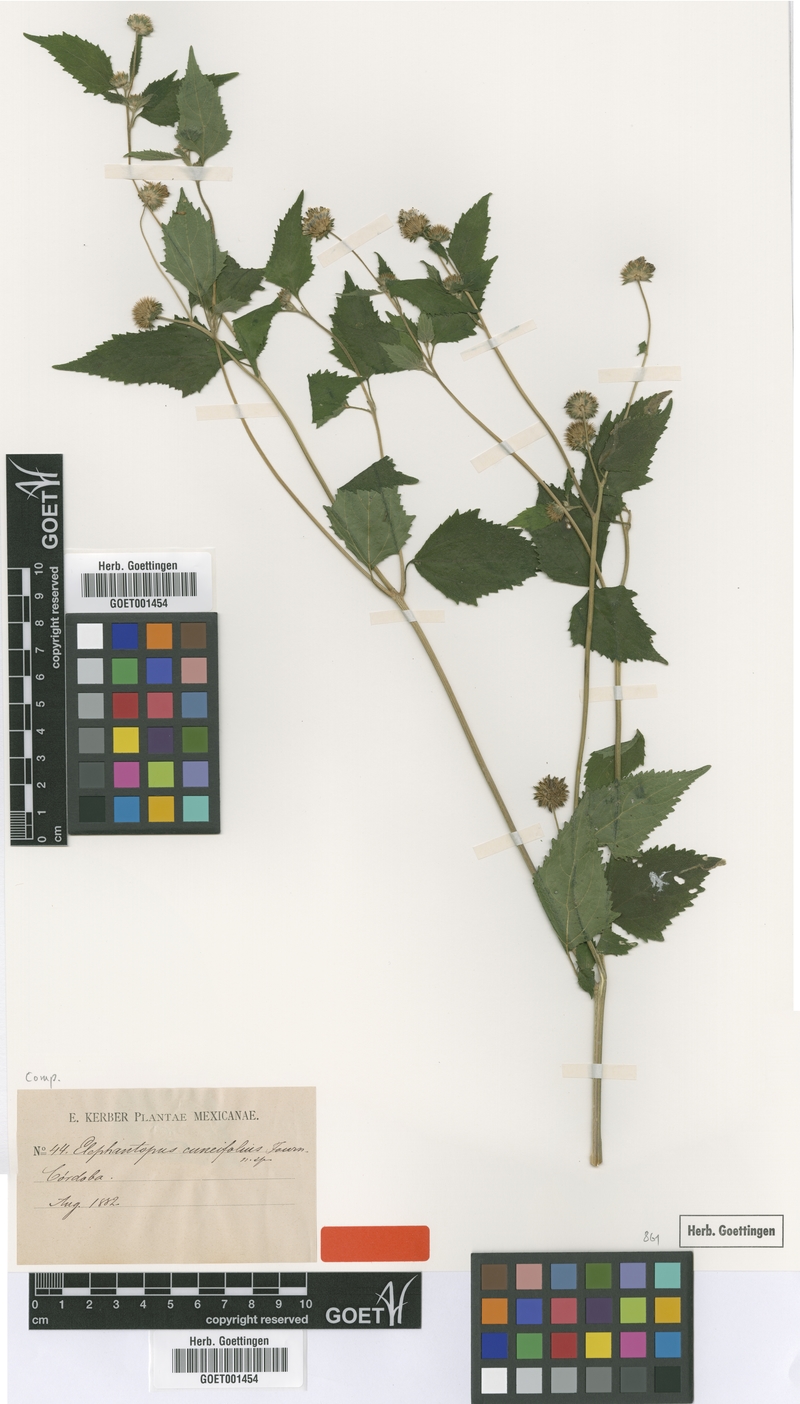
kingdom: Plantae
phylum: Tracheophyta
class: Magnoliopsida
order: Asterales
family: Asteraceae
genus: Melanthera
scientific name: Melanthera nivea
